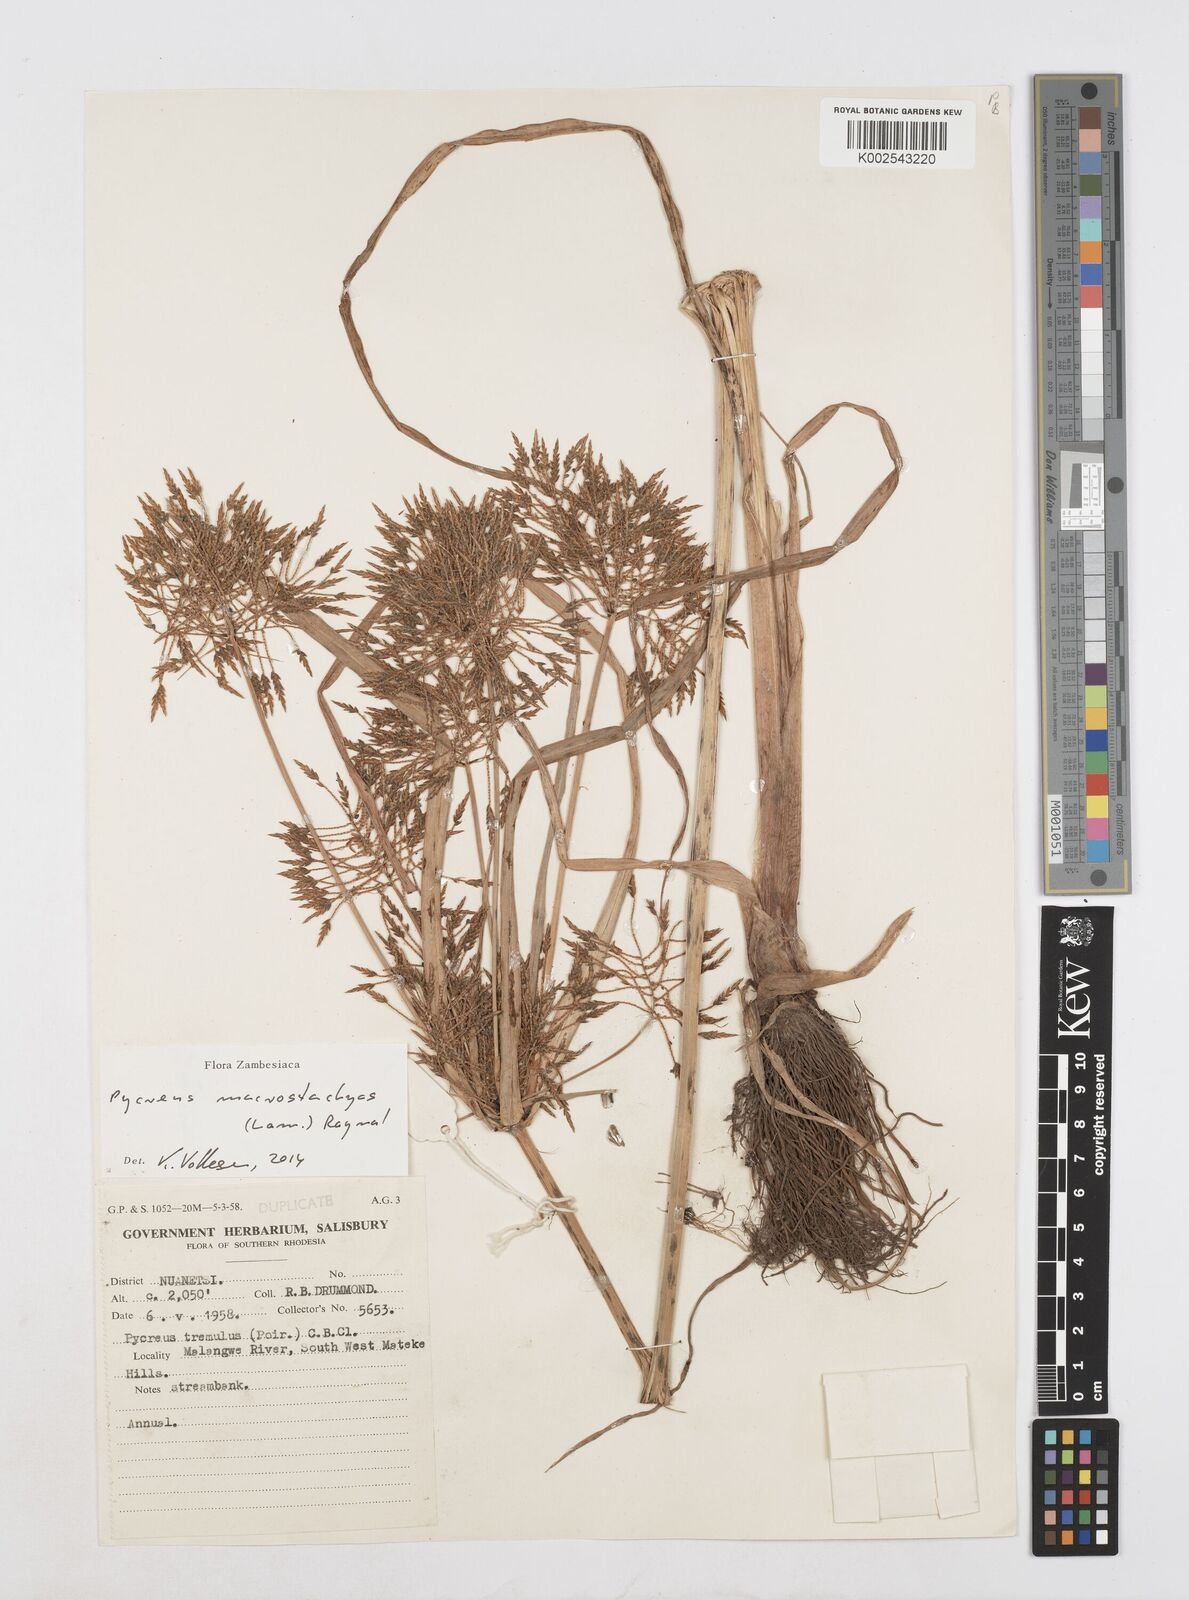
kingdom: Plantae
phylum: Tracheophyta
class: Liliopsida
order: Poales
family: Cyperaceae
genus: Cyperus
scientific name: Cyperus macrostachyos
